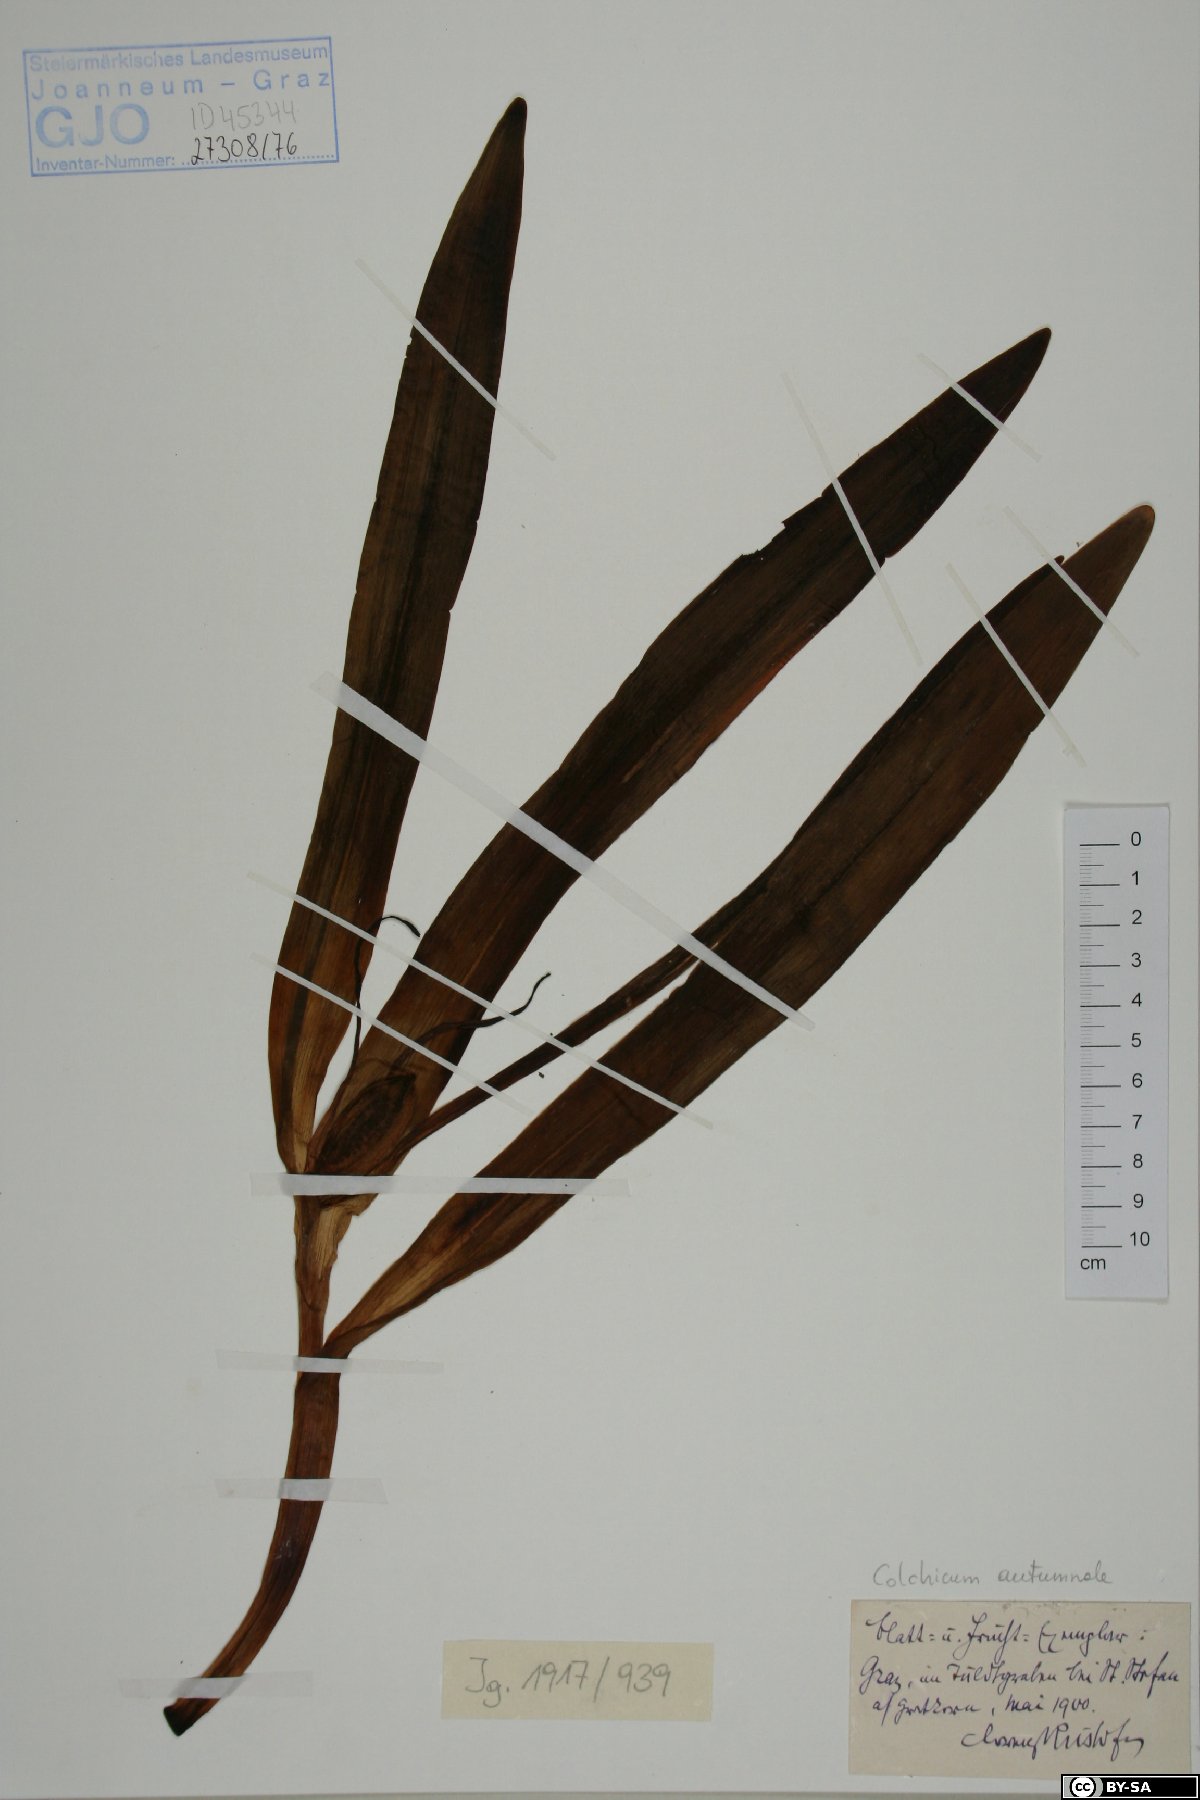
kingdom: Plantae
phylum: Tracheophyta
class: Liliopsida
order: Liliales
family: Colchicaceae
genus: Colchicum
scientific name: Colchicum autumnale
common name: Autumn crocus
